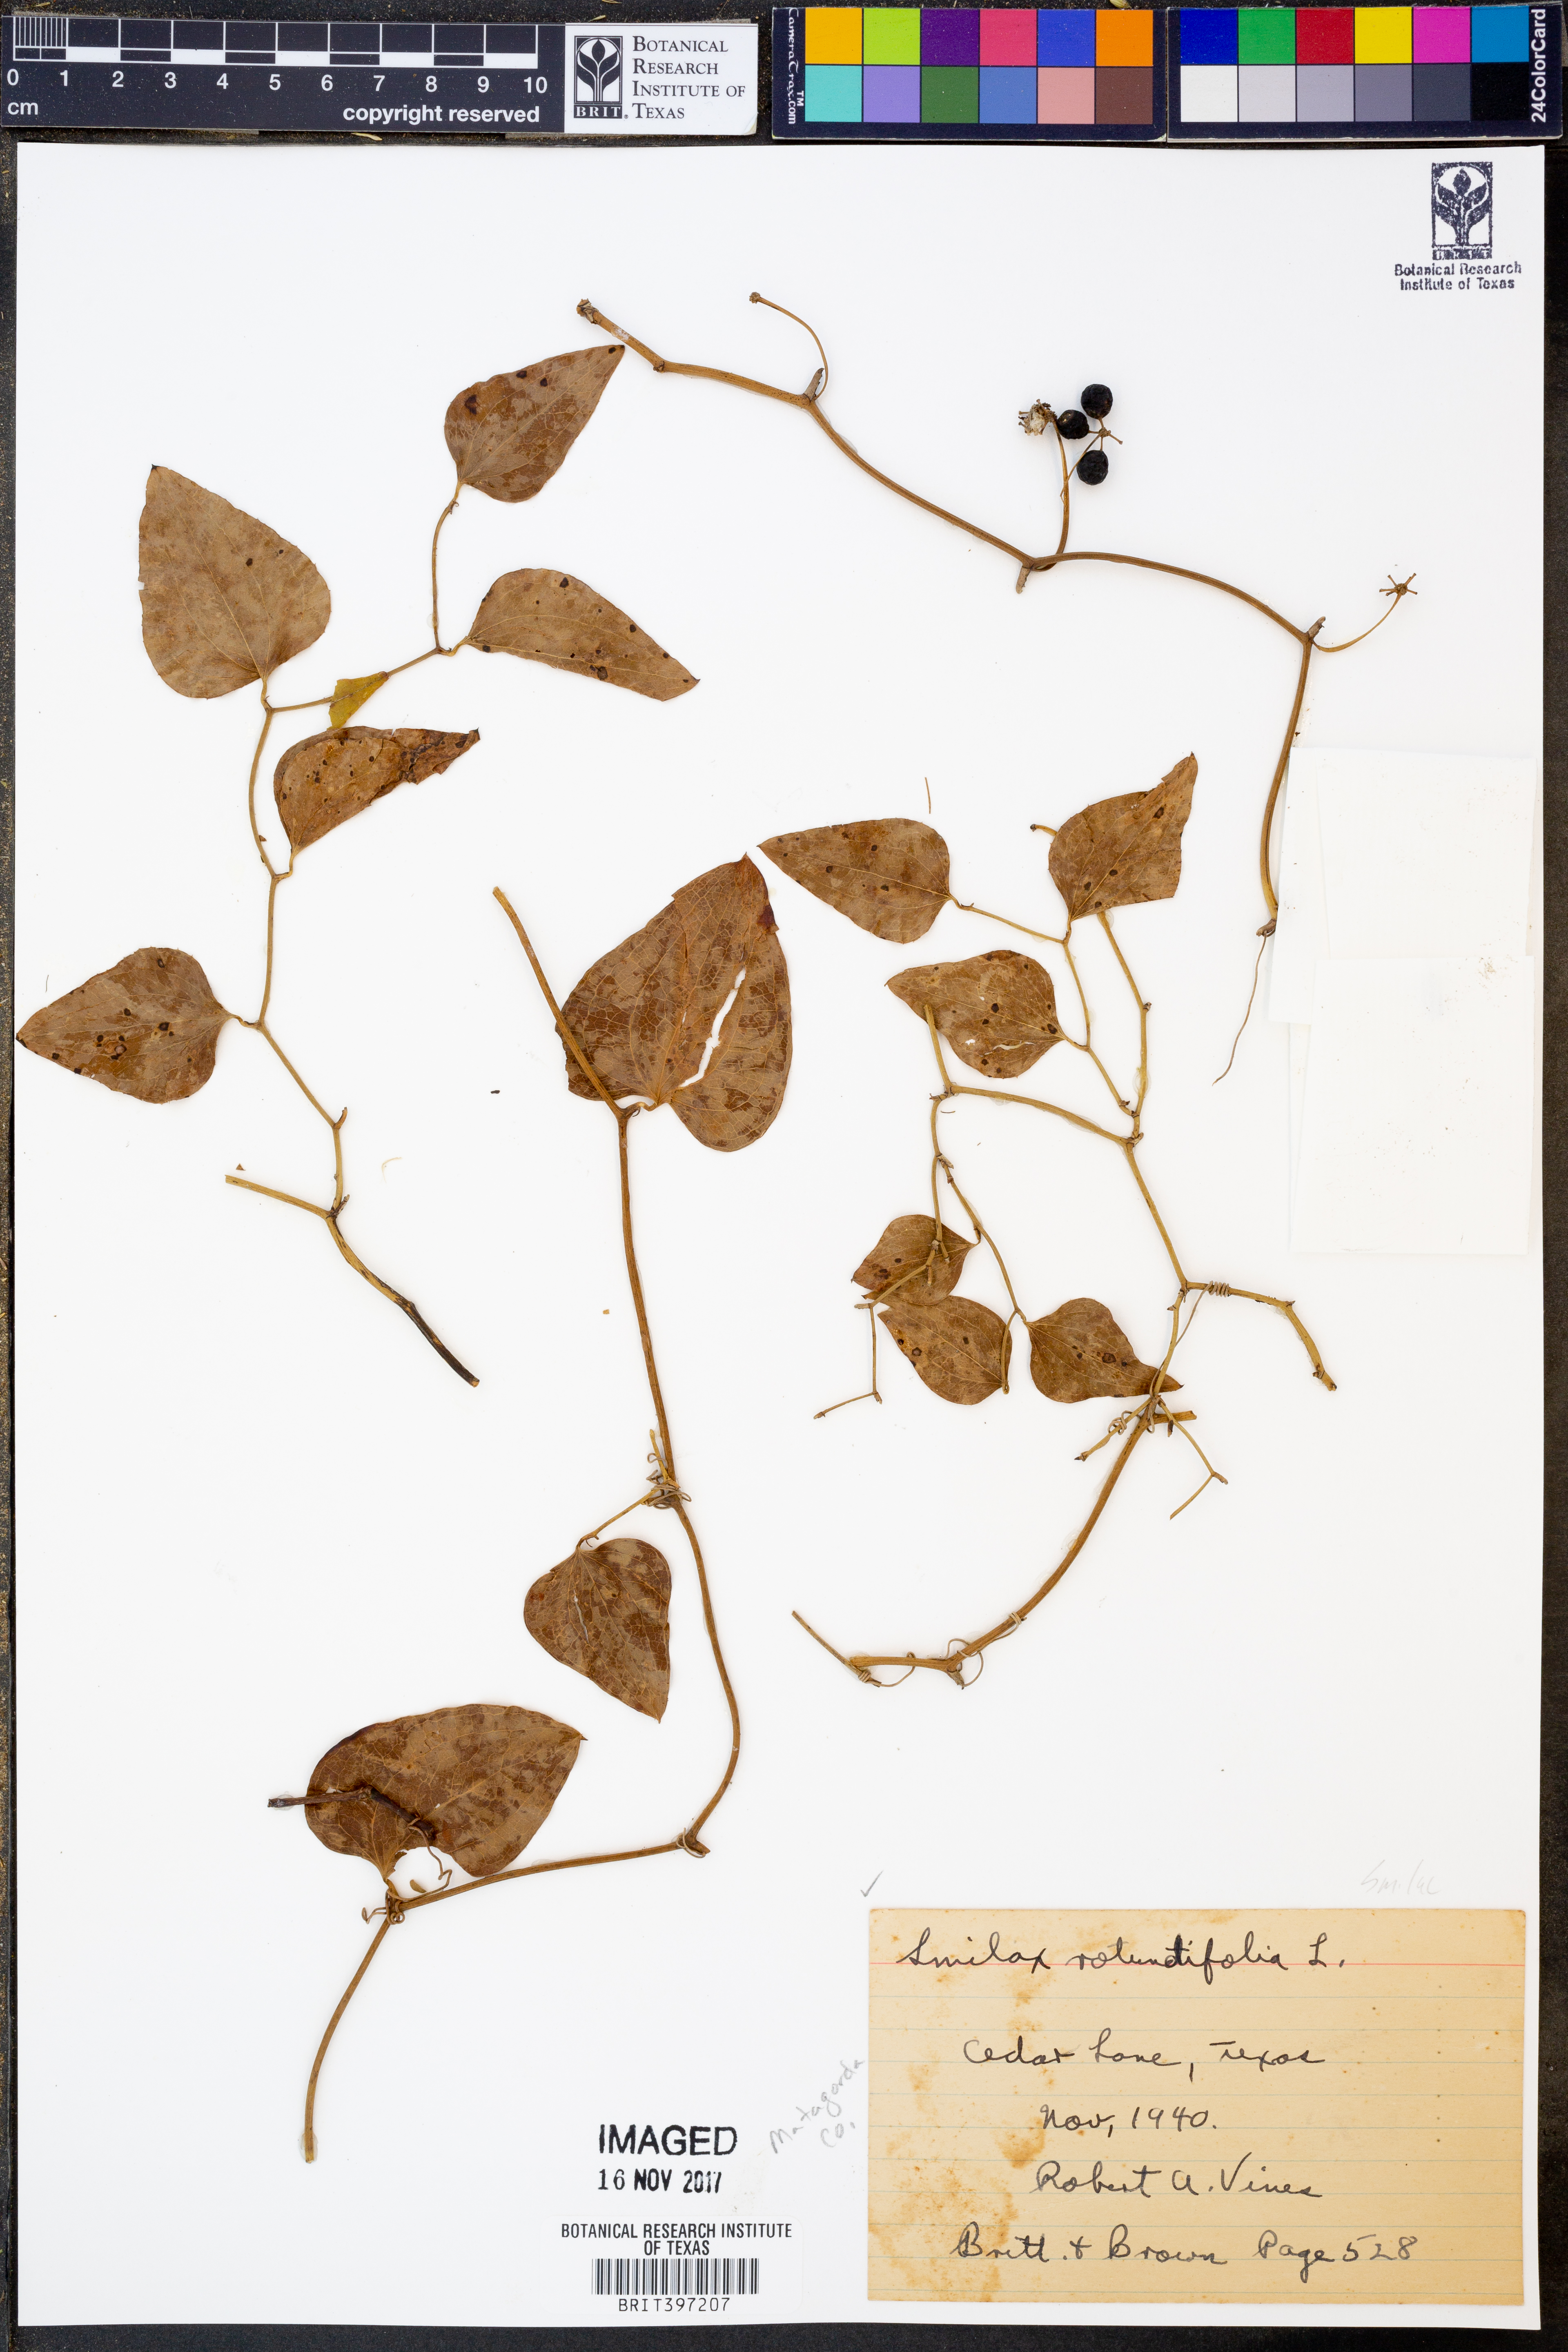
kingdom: Plantae
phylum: Tracheophyta
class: Liliopsida
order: Liliales
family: Smilacaceae
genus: Smilax
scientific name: Smilax rotundifolia
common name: Bullbriar
